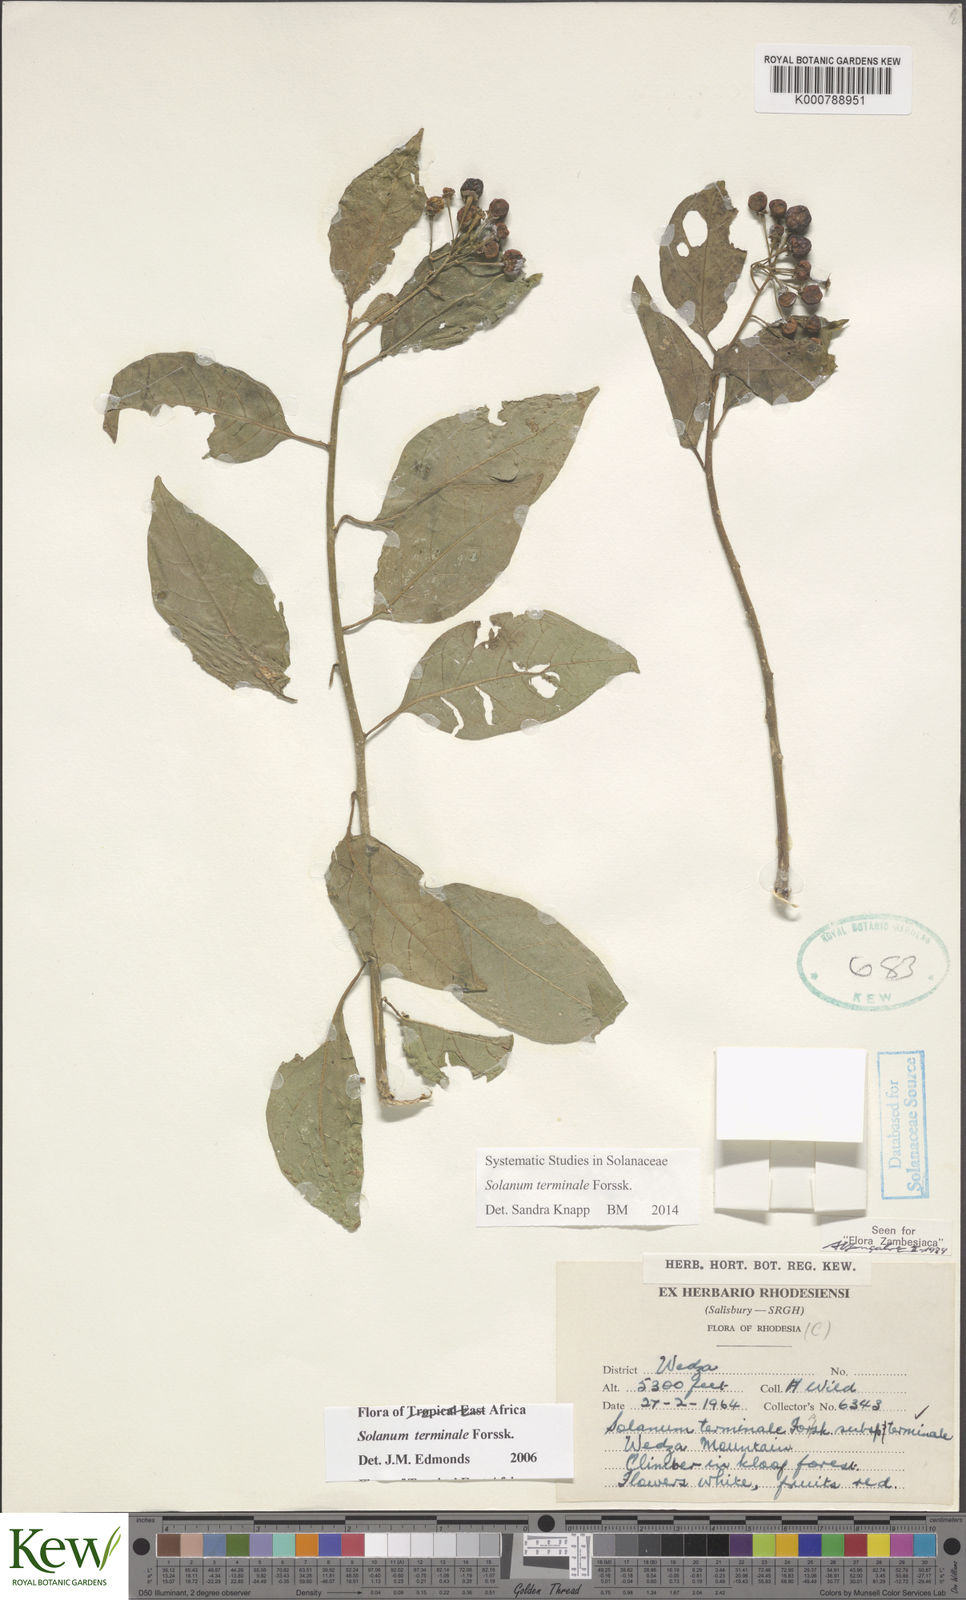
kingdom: Plantae
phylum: Tracheophyta
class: Magnoliopsida
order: Solanales
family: Solanaceae
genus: Solanum
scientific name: Solanum terminale
